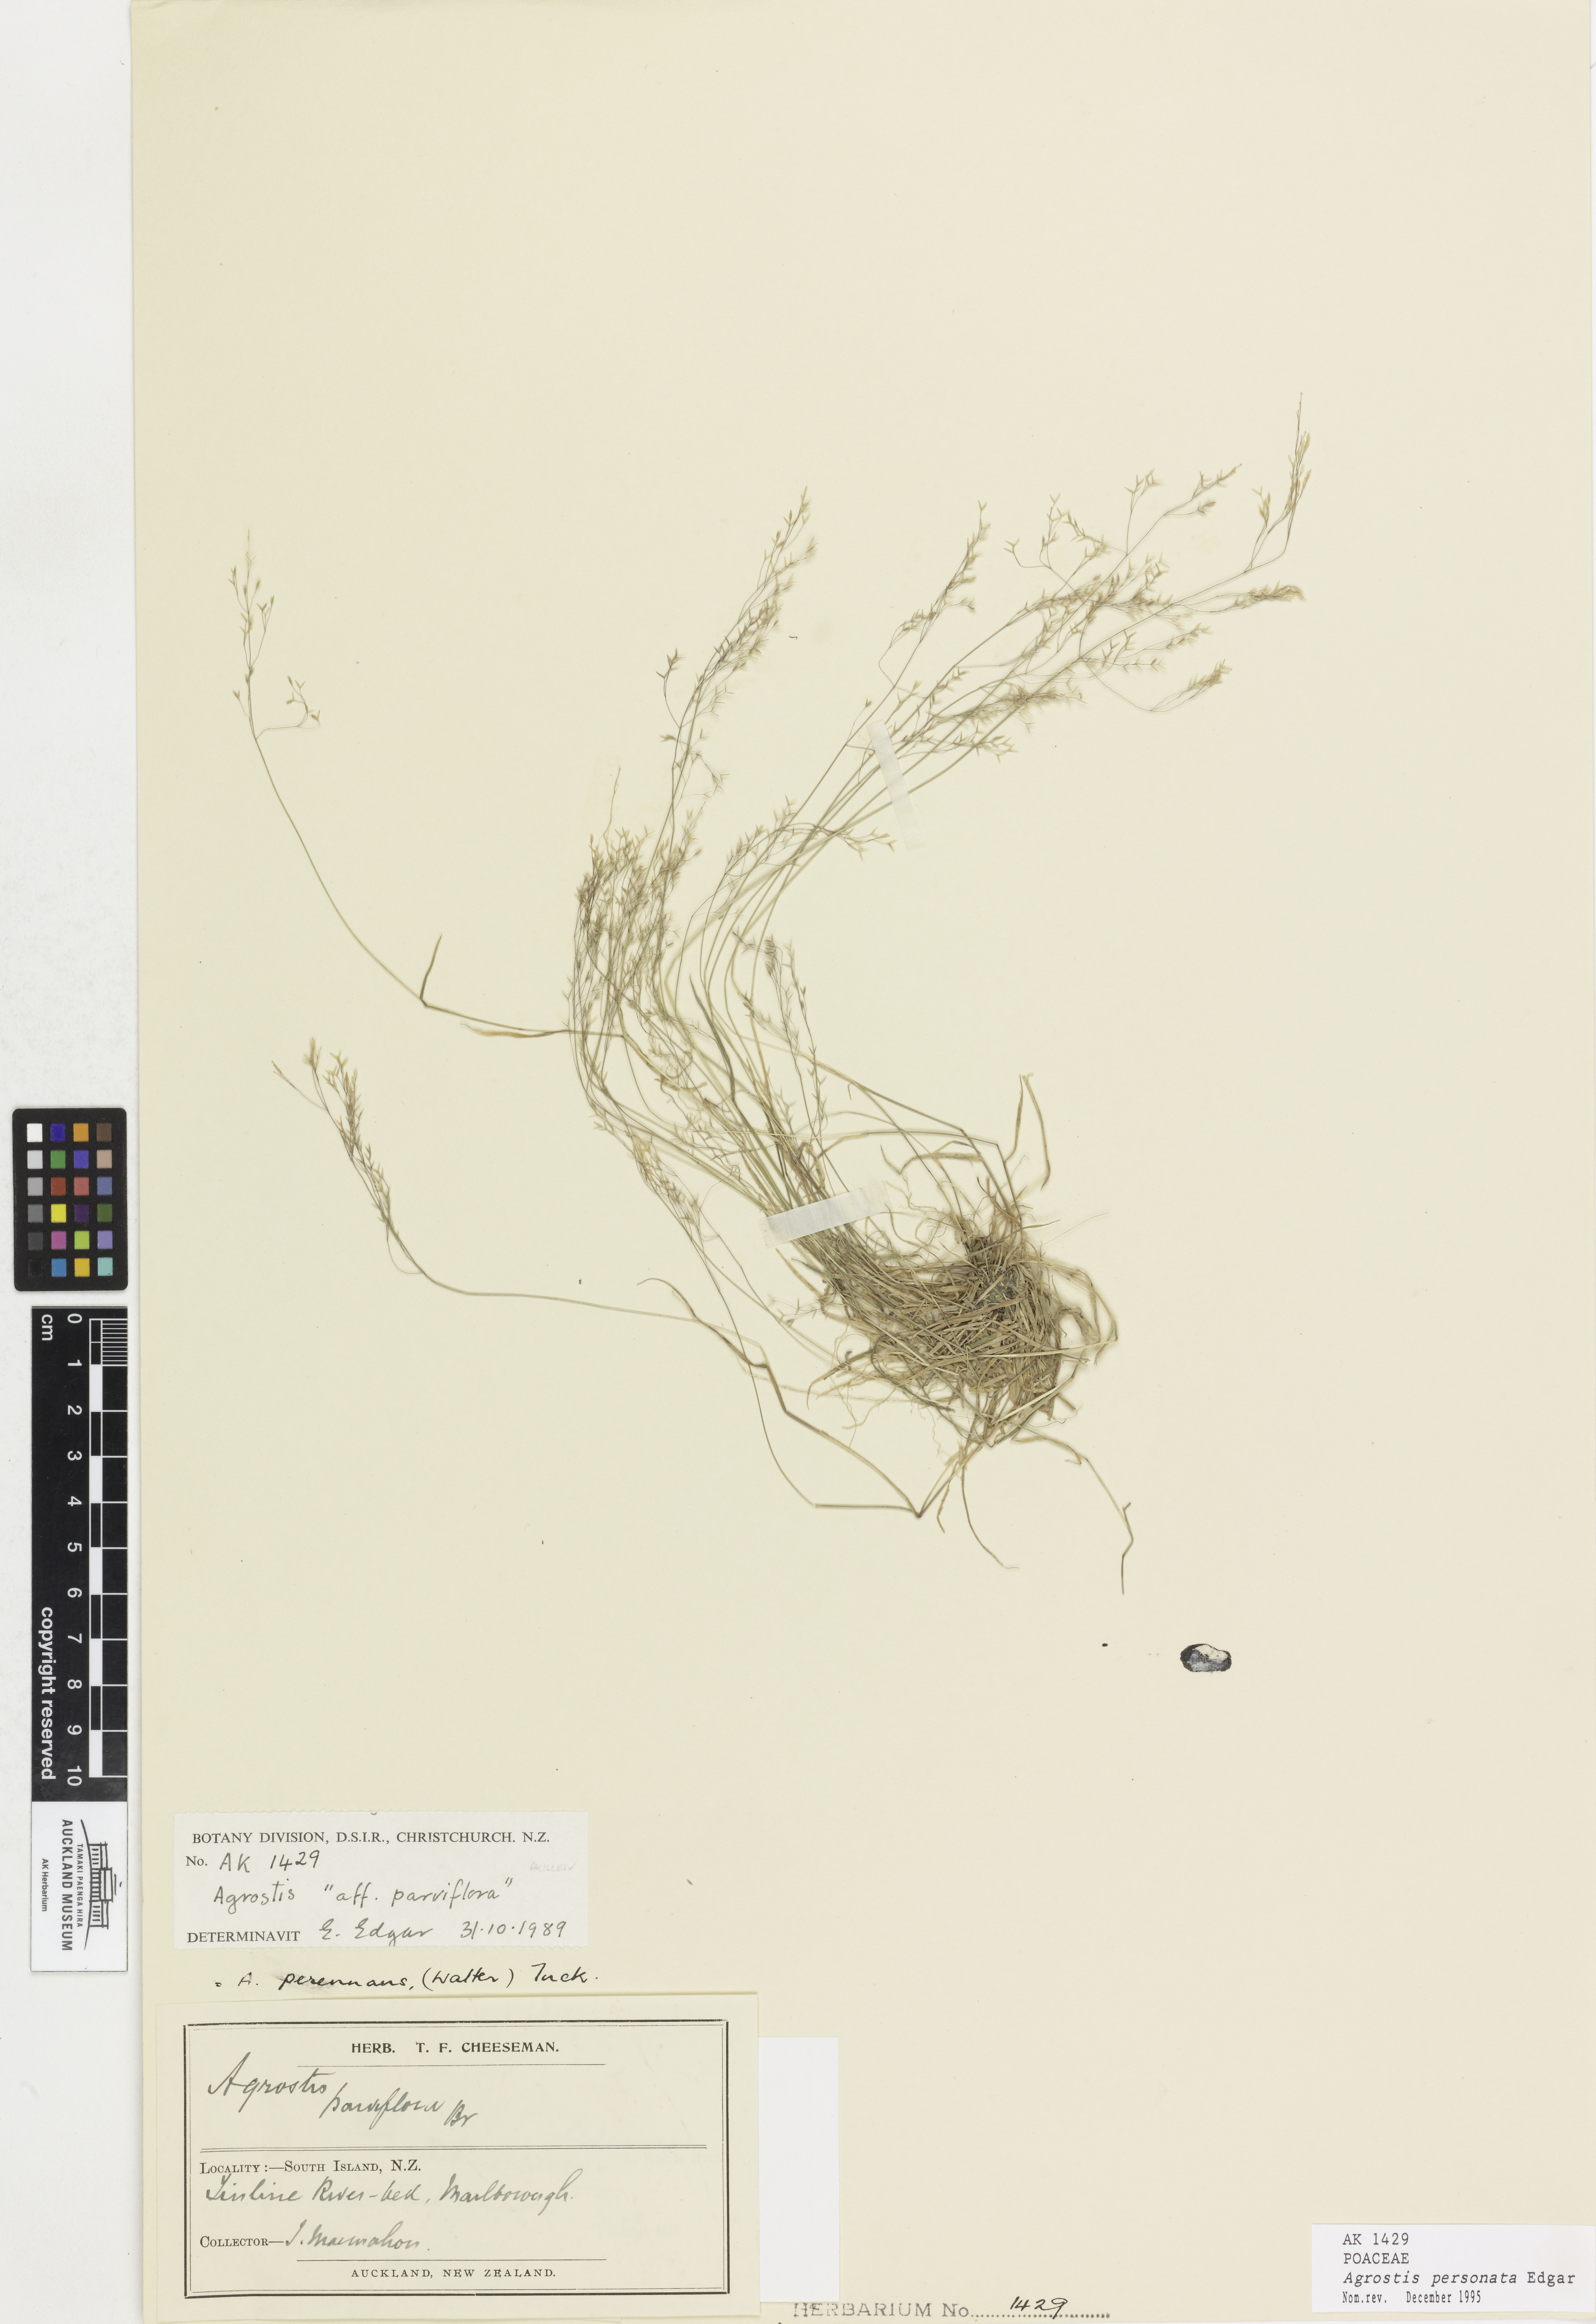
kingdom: Plantae
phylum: Tracheophyta
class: Liliopsida
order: Poales
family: Poaceae
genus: Agrostis
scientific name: Agrostis personata
